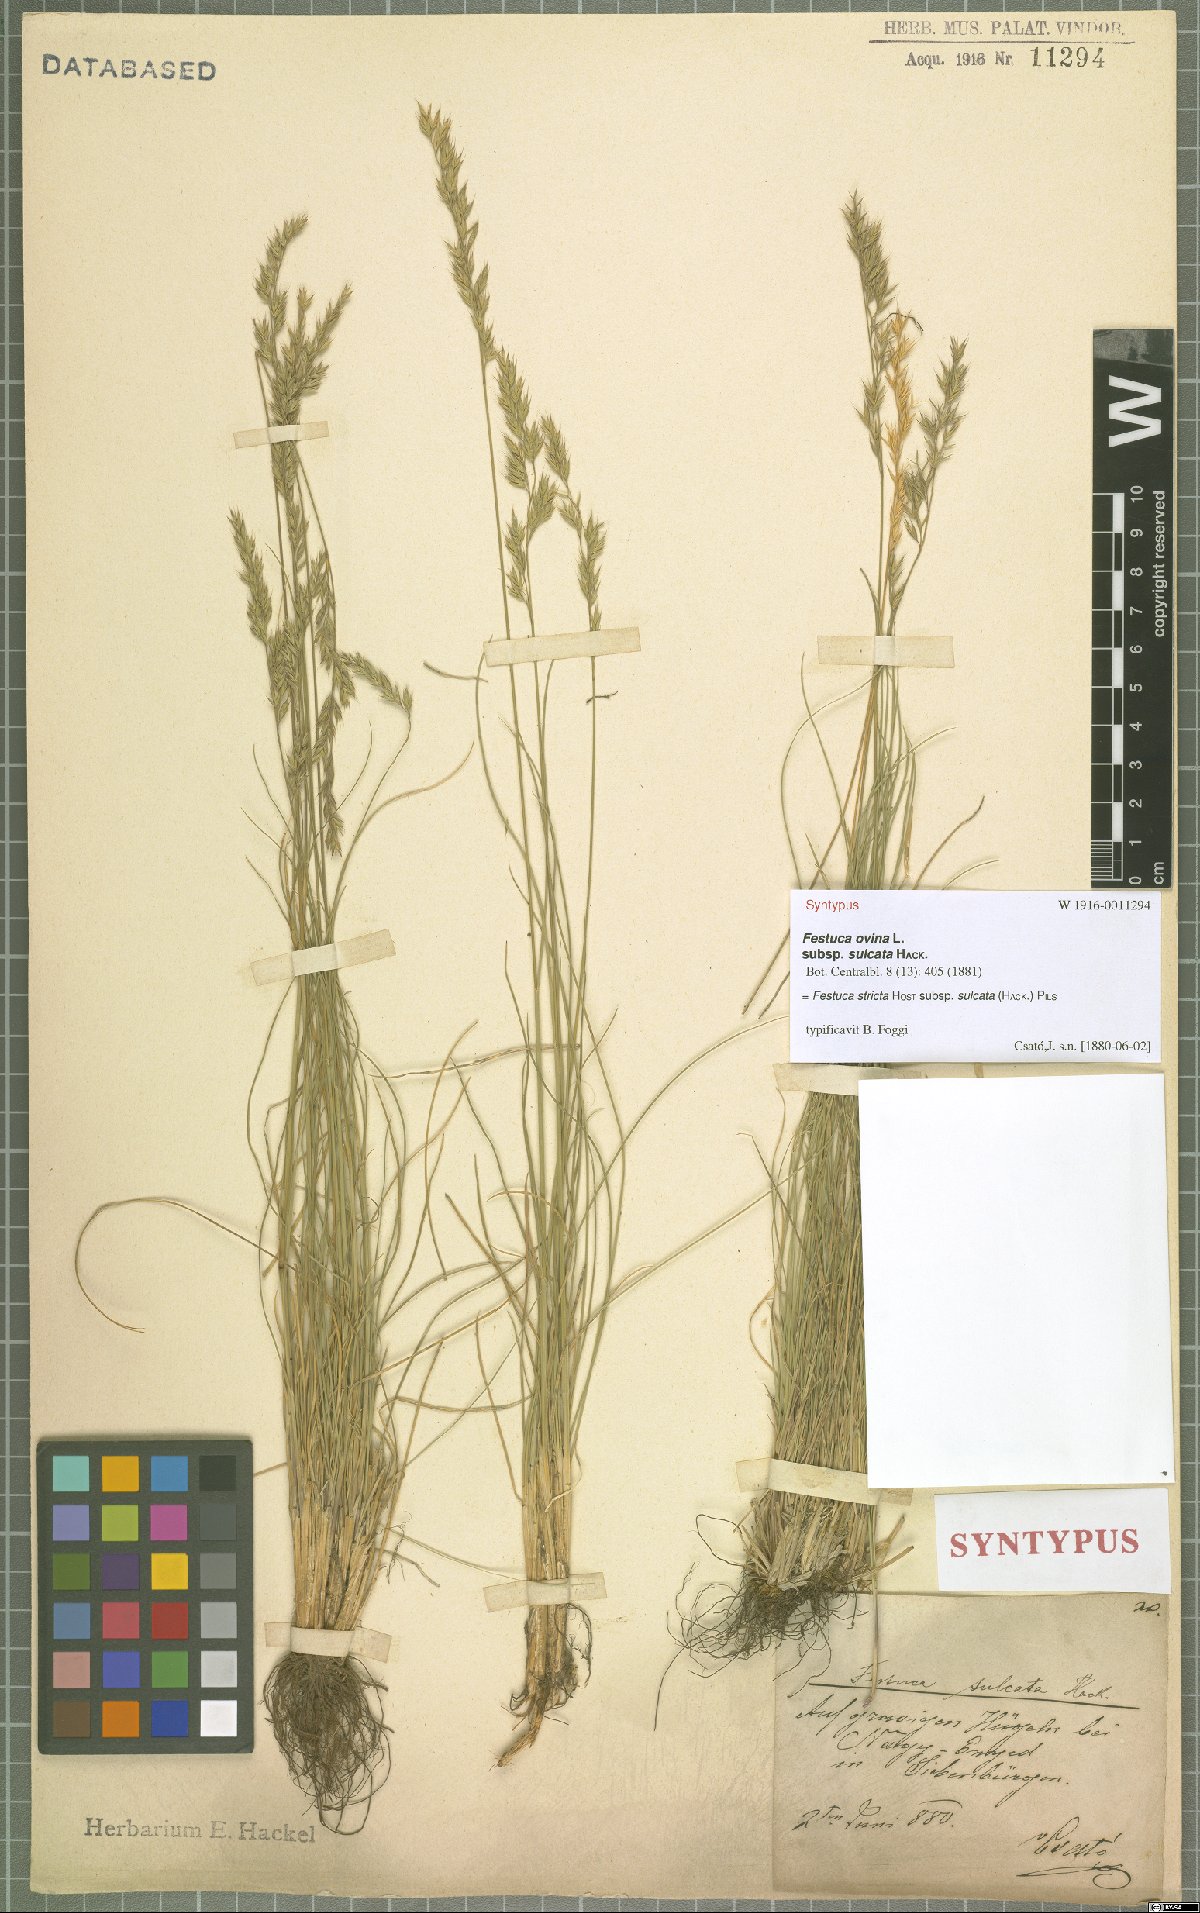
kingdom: Plantae
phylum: Tracheophyta
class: Liliopsida
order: Poales
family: Poaceae
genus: Festuca
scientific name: Festuca rupicola
